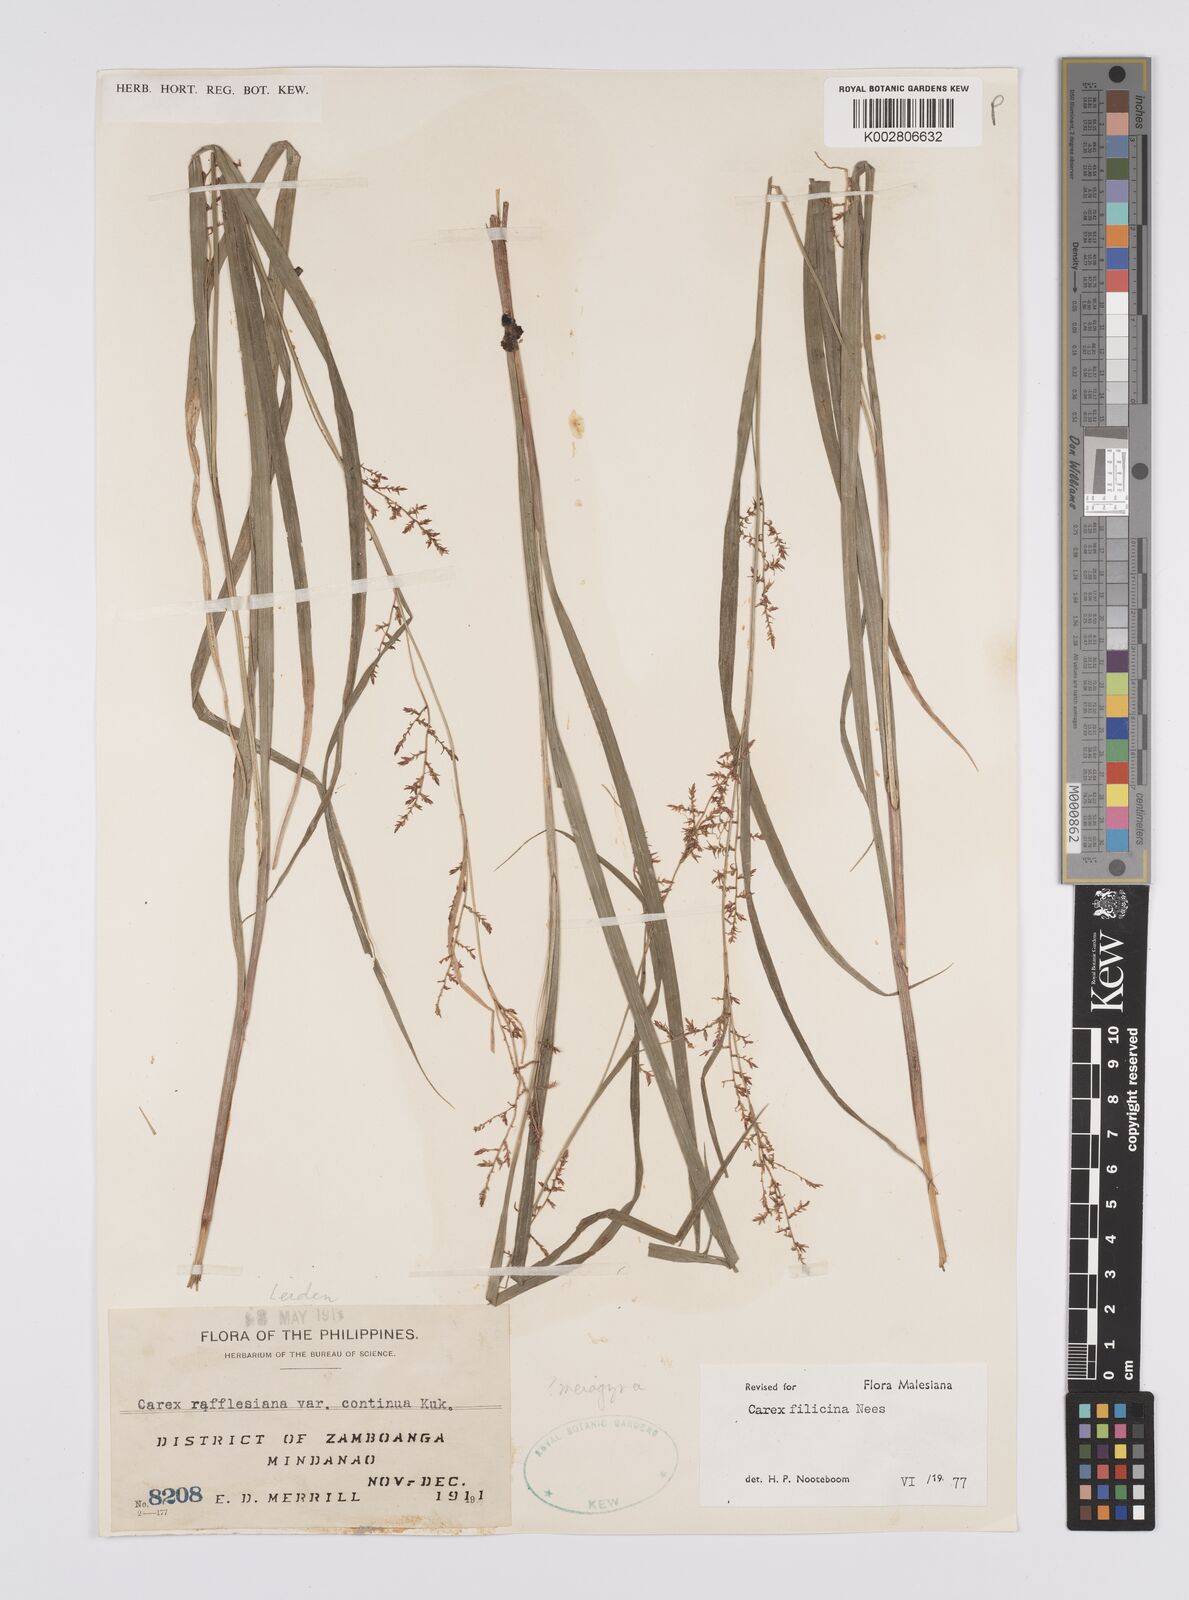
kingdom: Plantae
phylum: Tracheophyta
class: Liliopsida
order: Poales
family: Cyperaceae
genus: Carex
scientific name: Carex filicina
